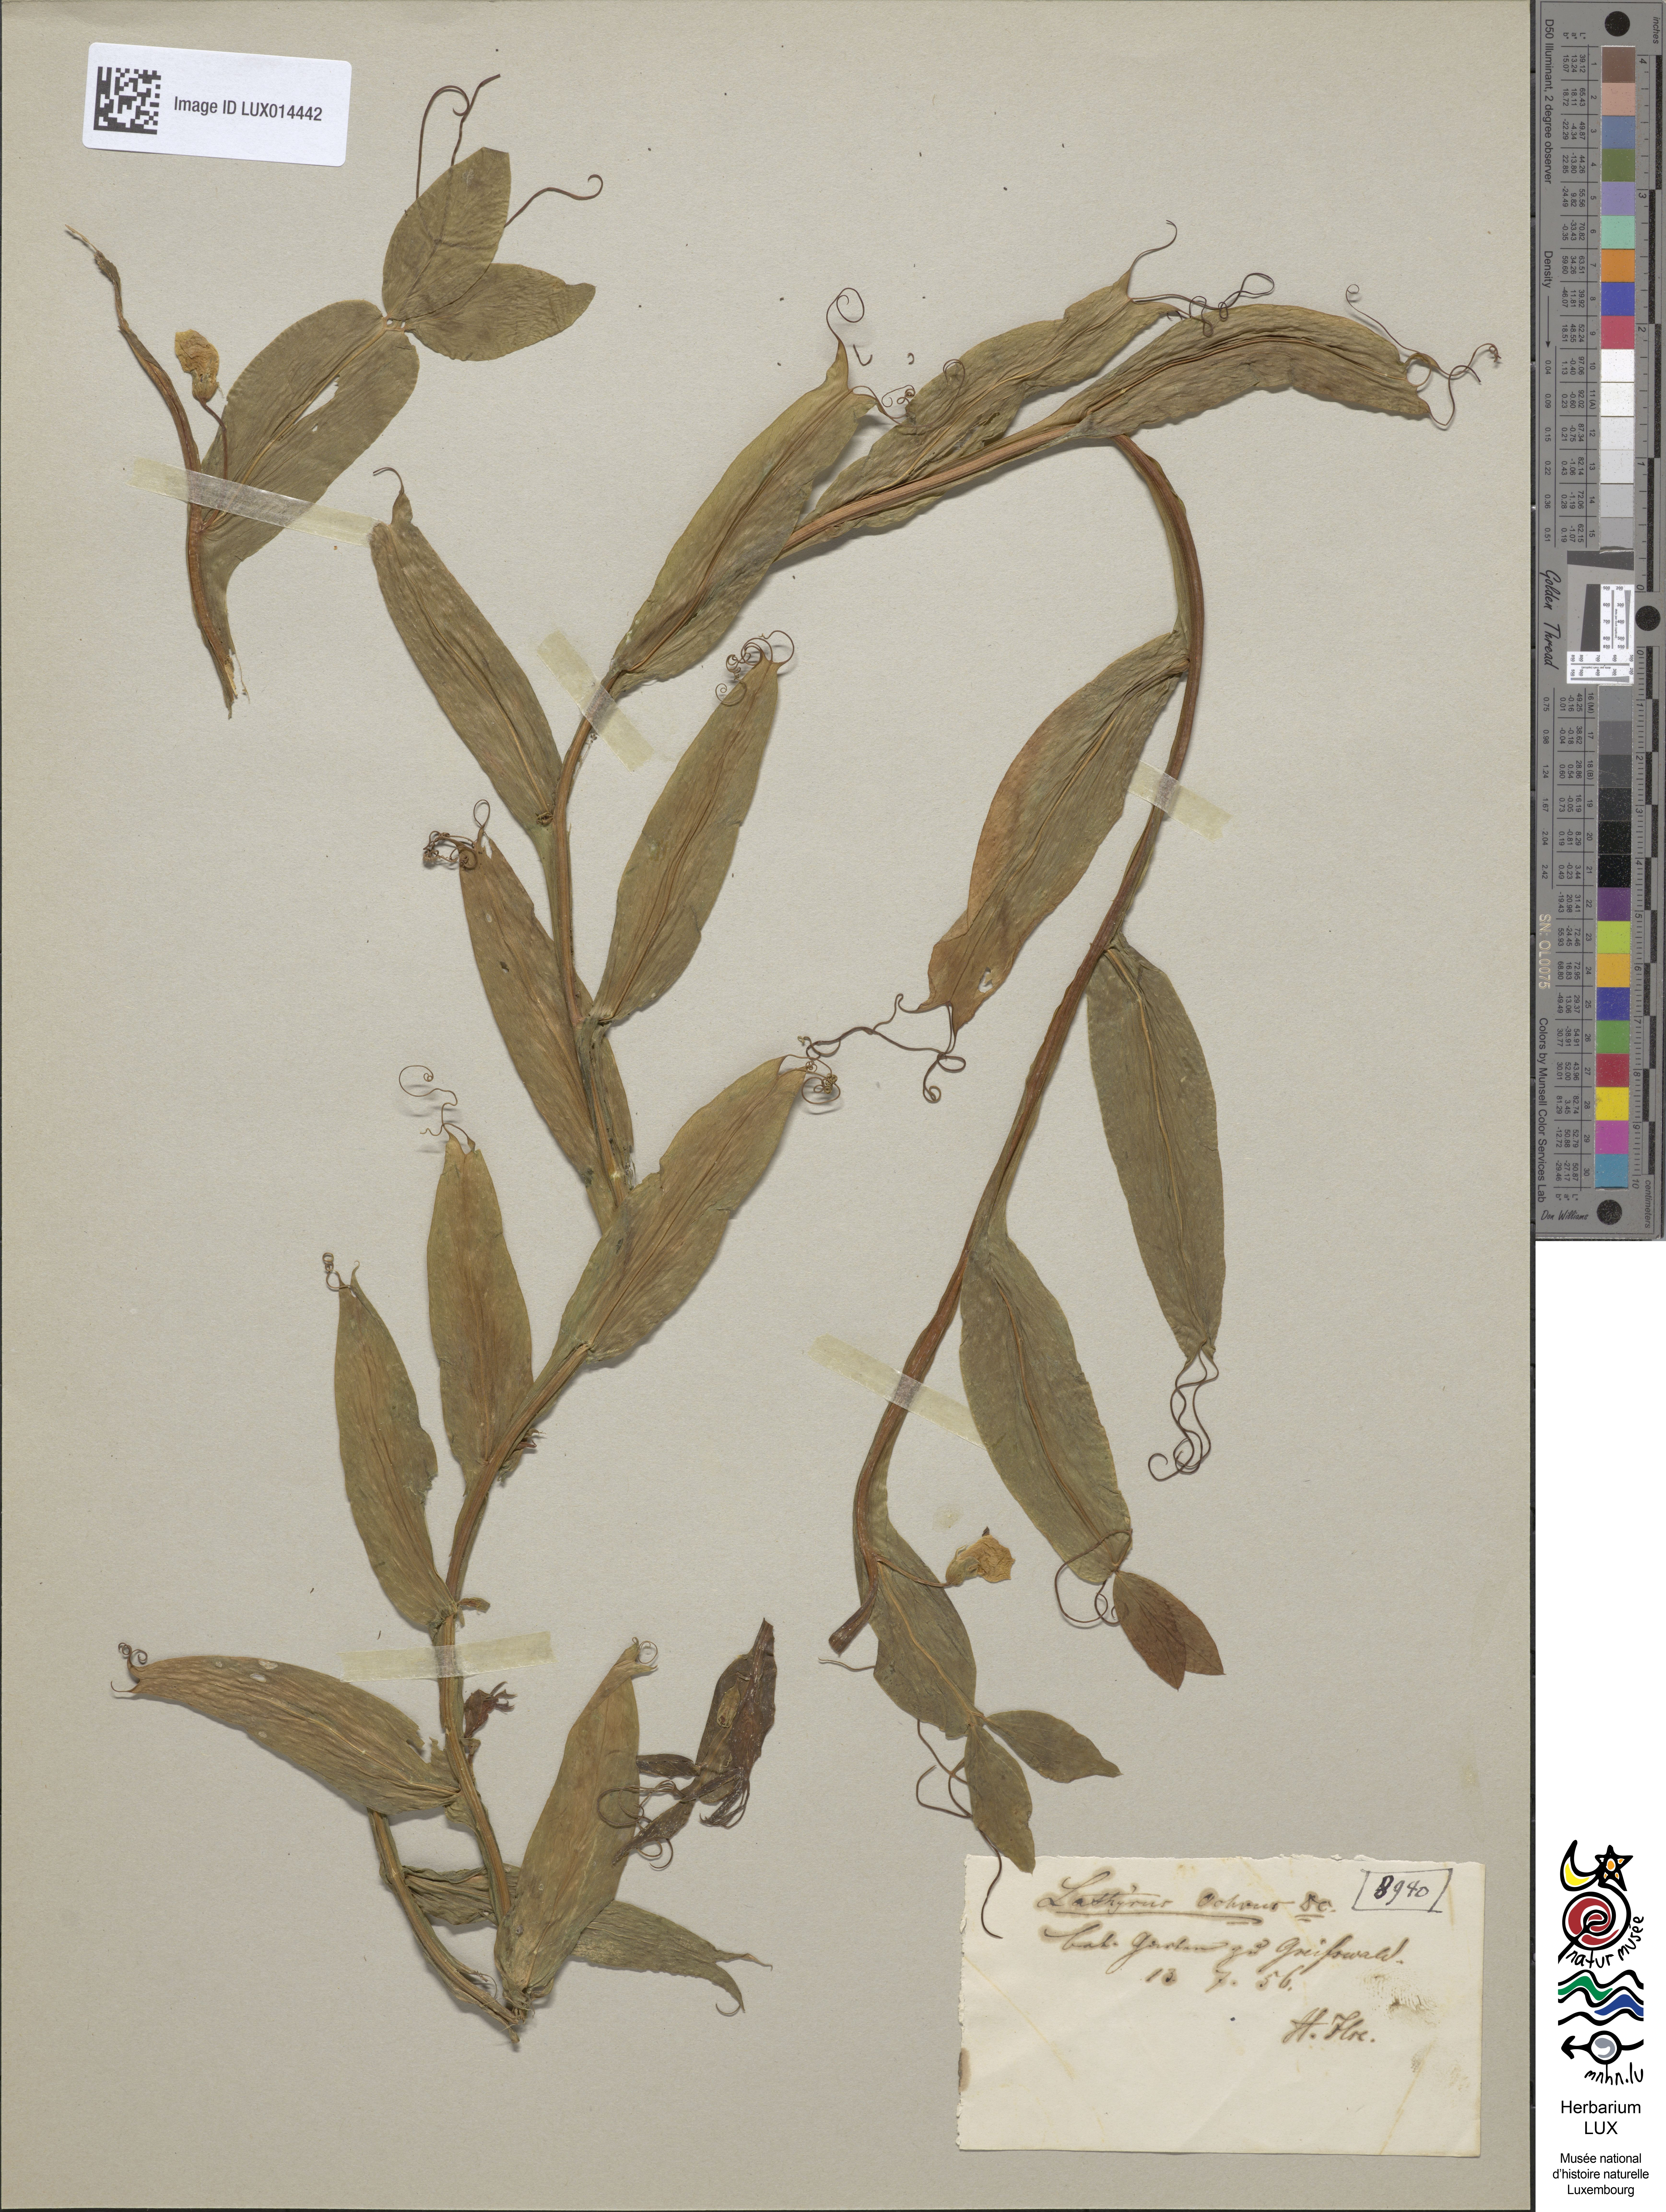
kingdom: Plantae
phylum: Tracheophyta
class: Magnoliopsida
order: Fabales
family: Fabaceae
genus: Lathyrus
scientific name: Lathyrus ochrus
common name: Winged vetchling
